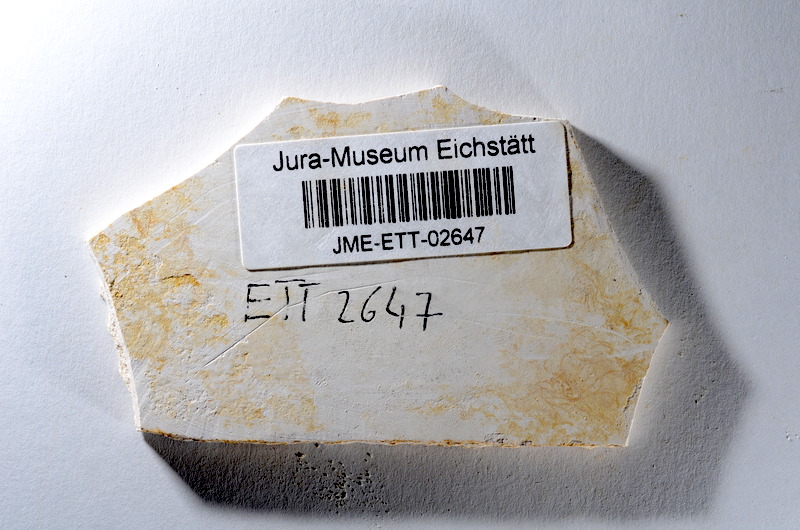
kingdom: Animalia
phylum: Chordata
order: Salmoniformes
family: Orthogonikleithridae
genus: Orthogonikleithrus
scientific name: Orthogonikleithrus hoelli
